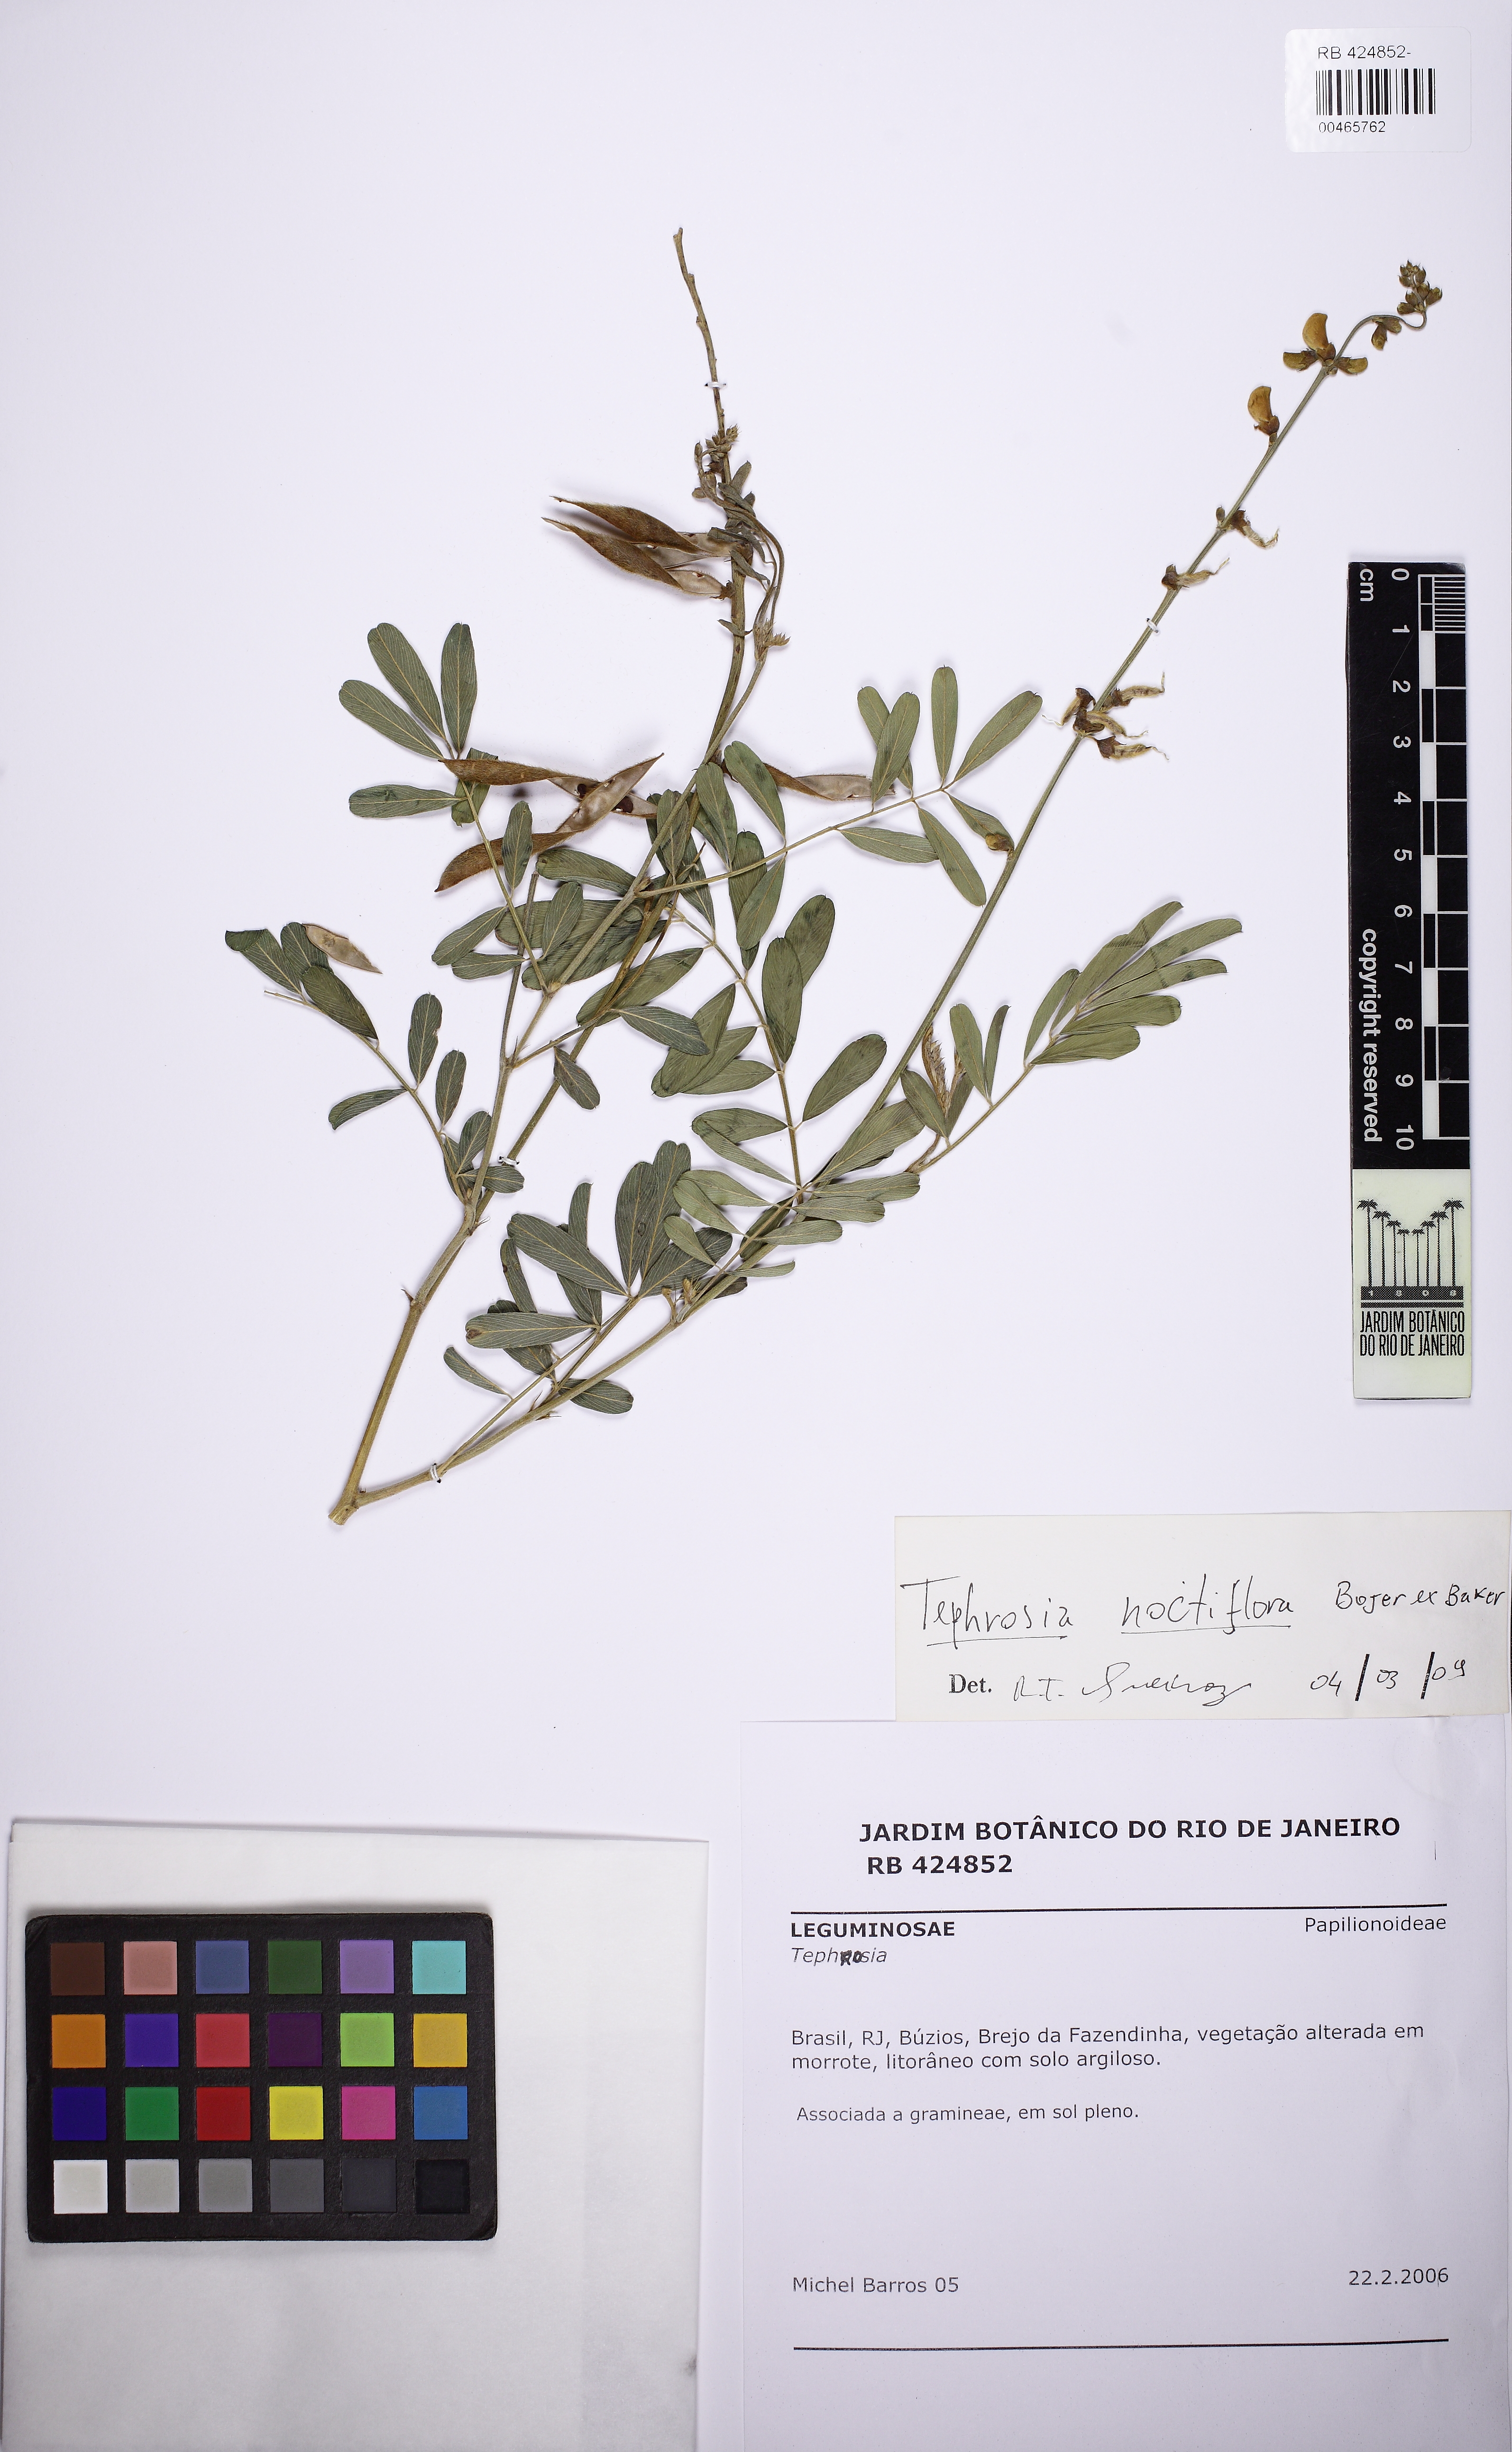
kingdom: Plantae
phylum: Tracheophyta
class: Magnoliopsida
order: Fabales
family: Fabaceae
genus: Tephrosia
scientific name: Tephrosia noctiflora
